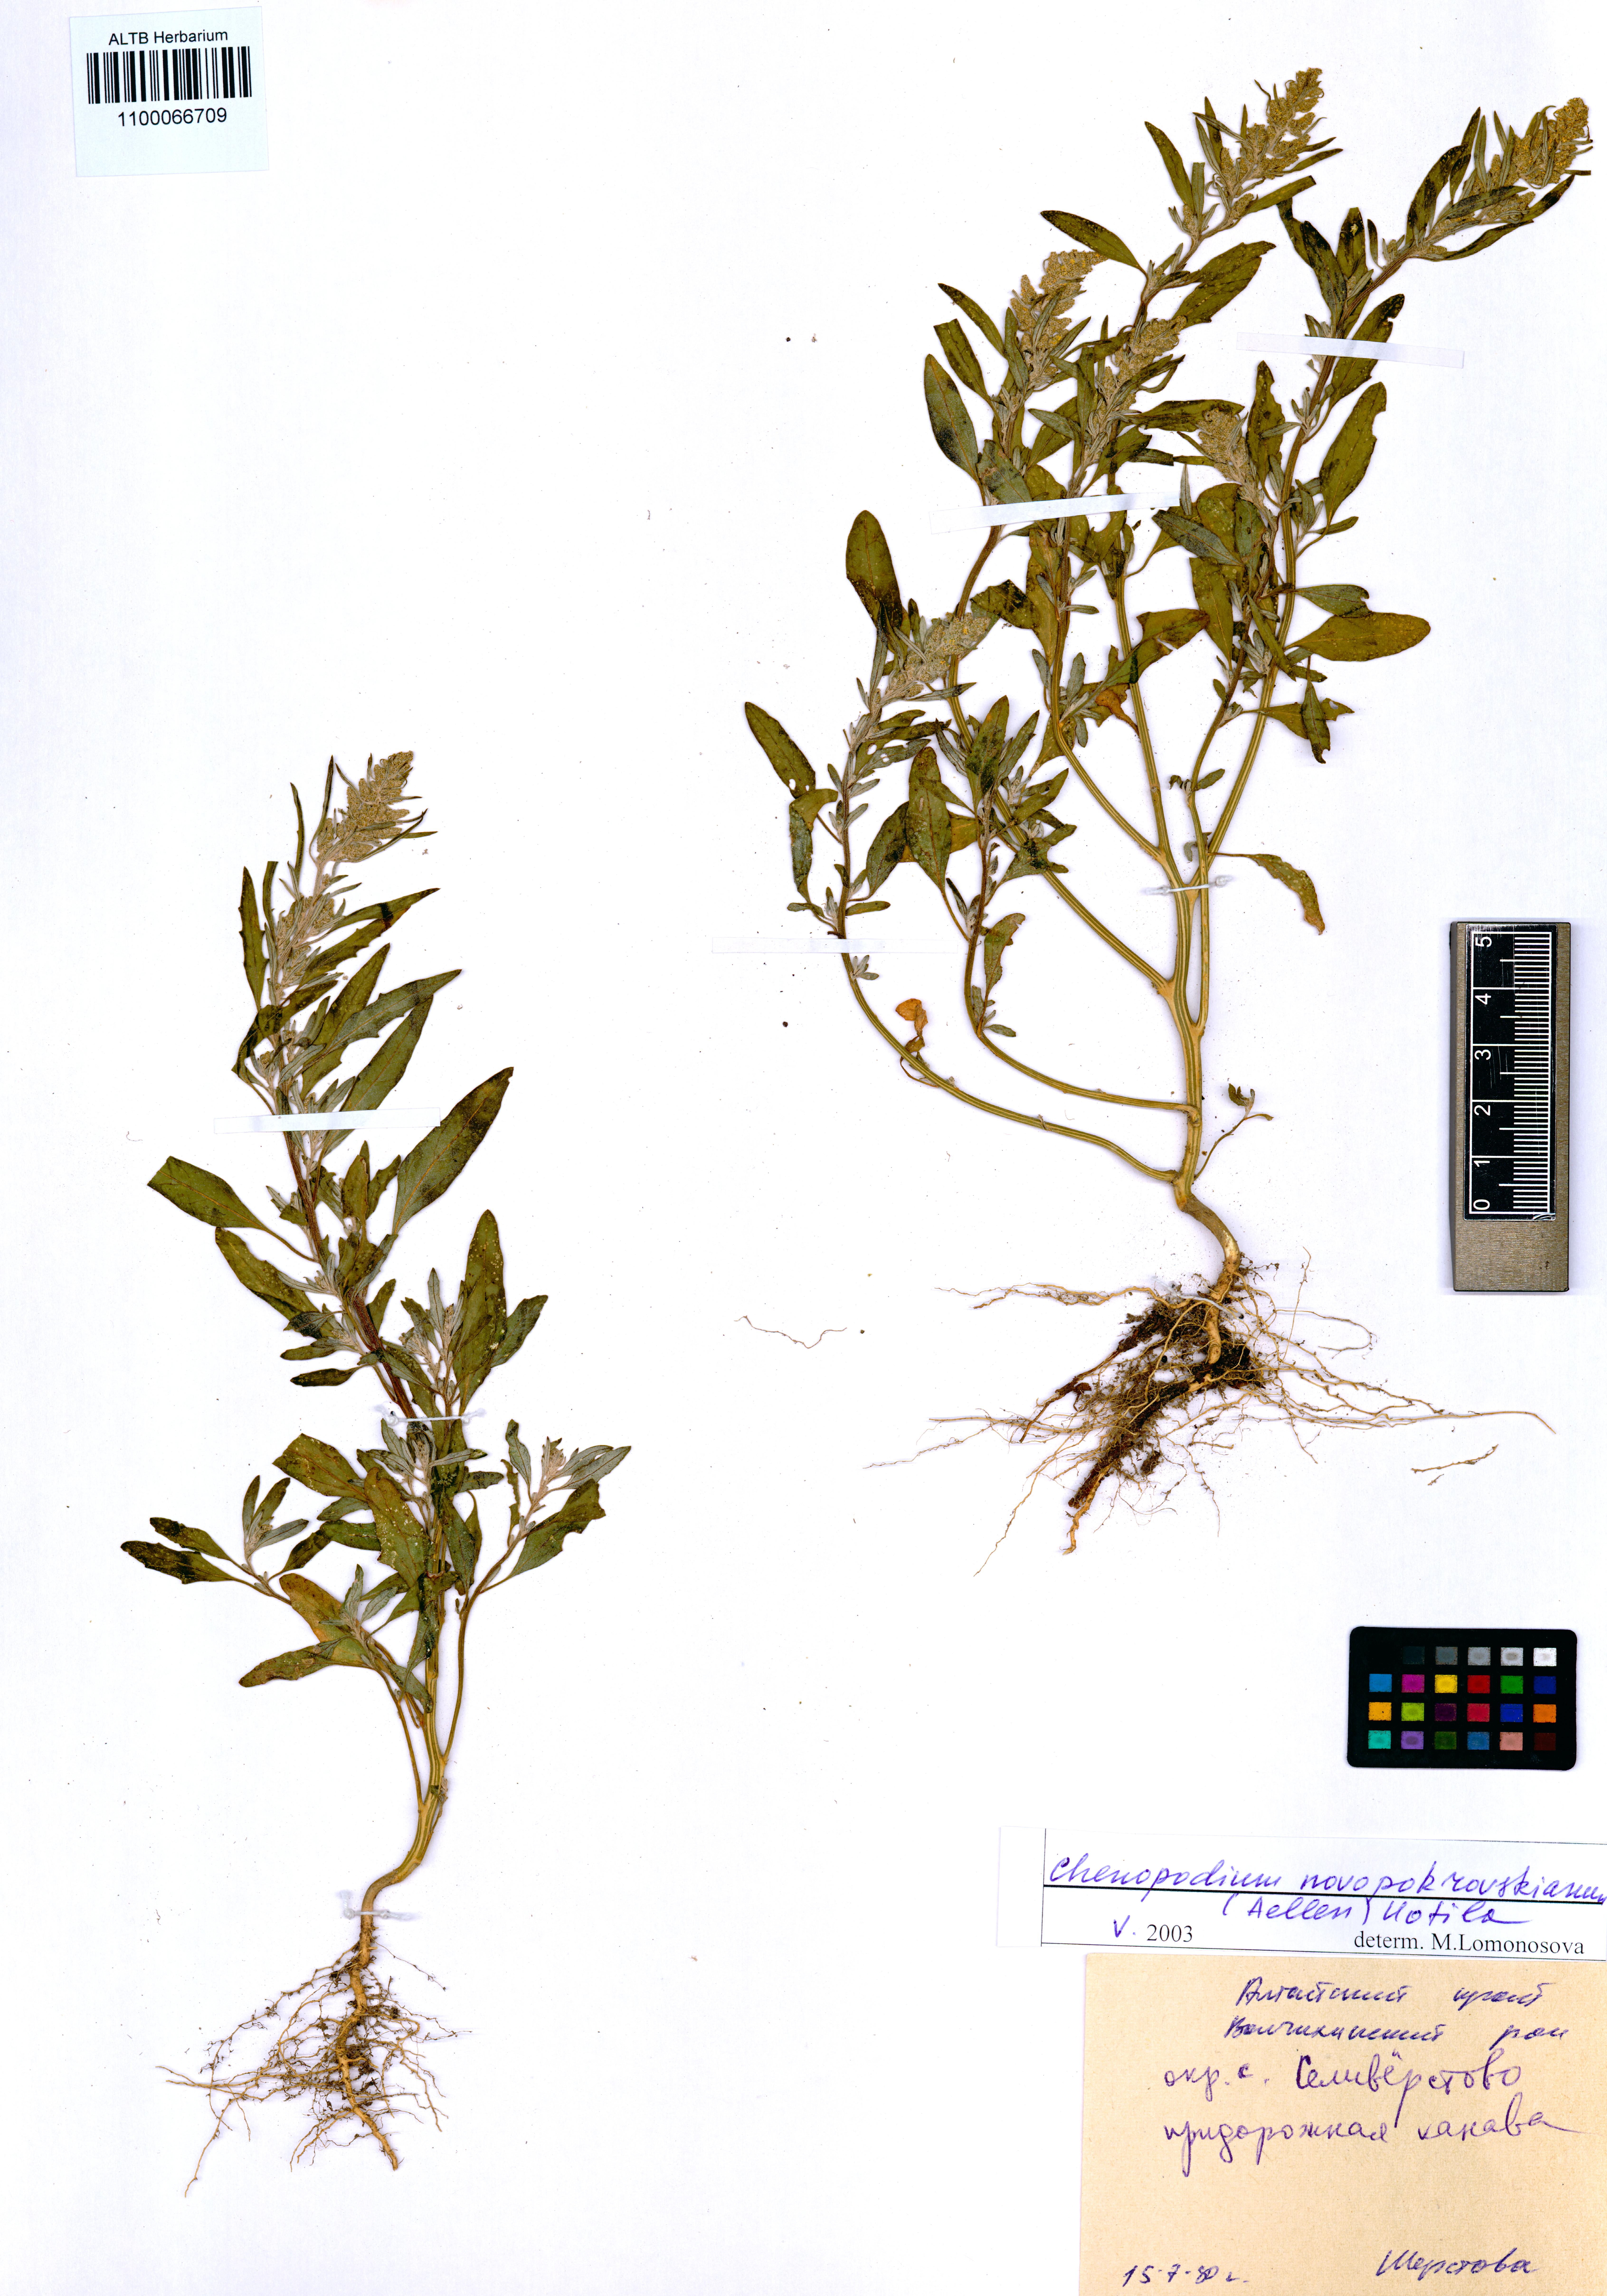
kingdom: Plantae
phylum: Tracheophyta
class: Magnoliopsida
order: Caryophyllales
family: Amaranthaceae
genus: Chenopodium
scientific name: Chenopodium novopokrovskyanum
